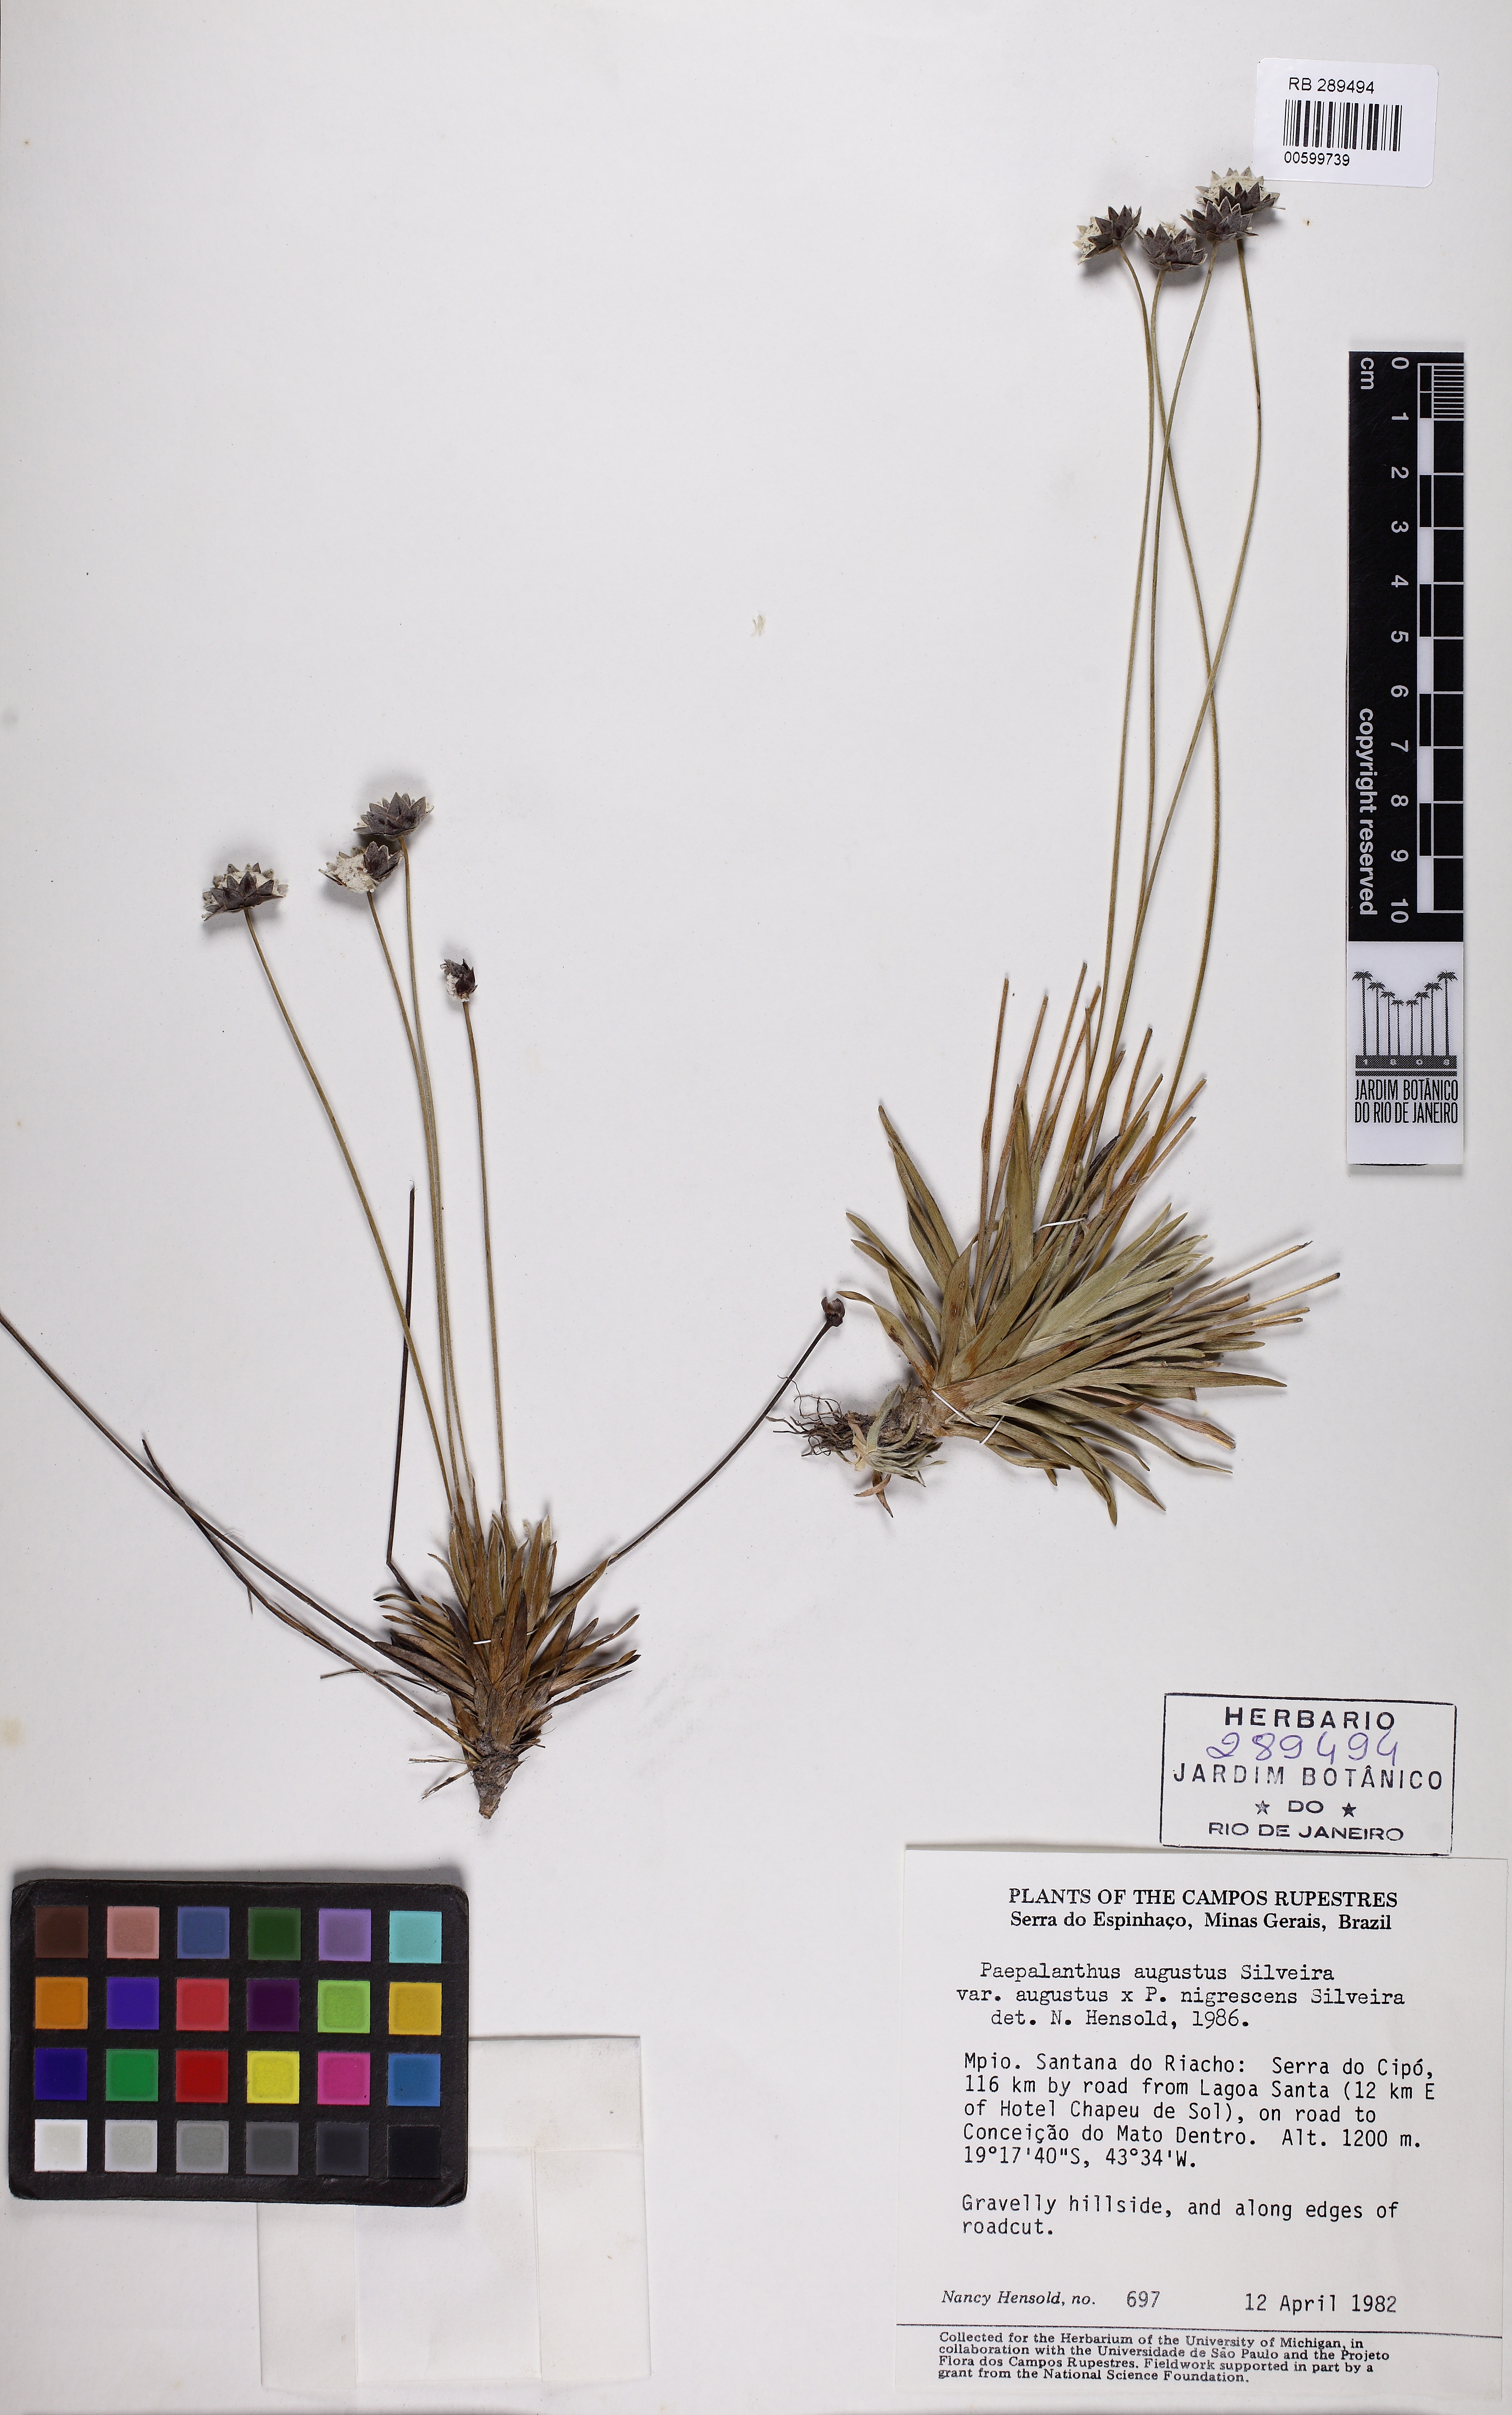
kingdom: Plantae
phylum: Tracheophyta
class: Liliopsida
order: Poales
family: Eriocaulaceae
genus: Paepalanthus
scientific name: Paepalanthus augustus
